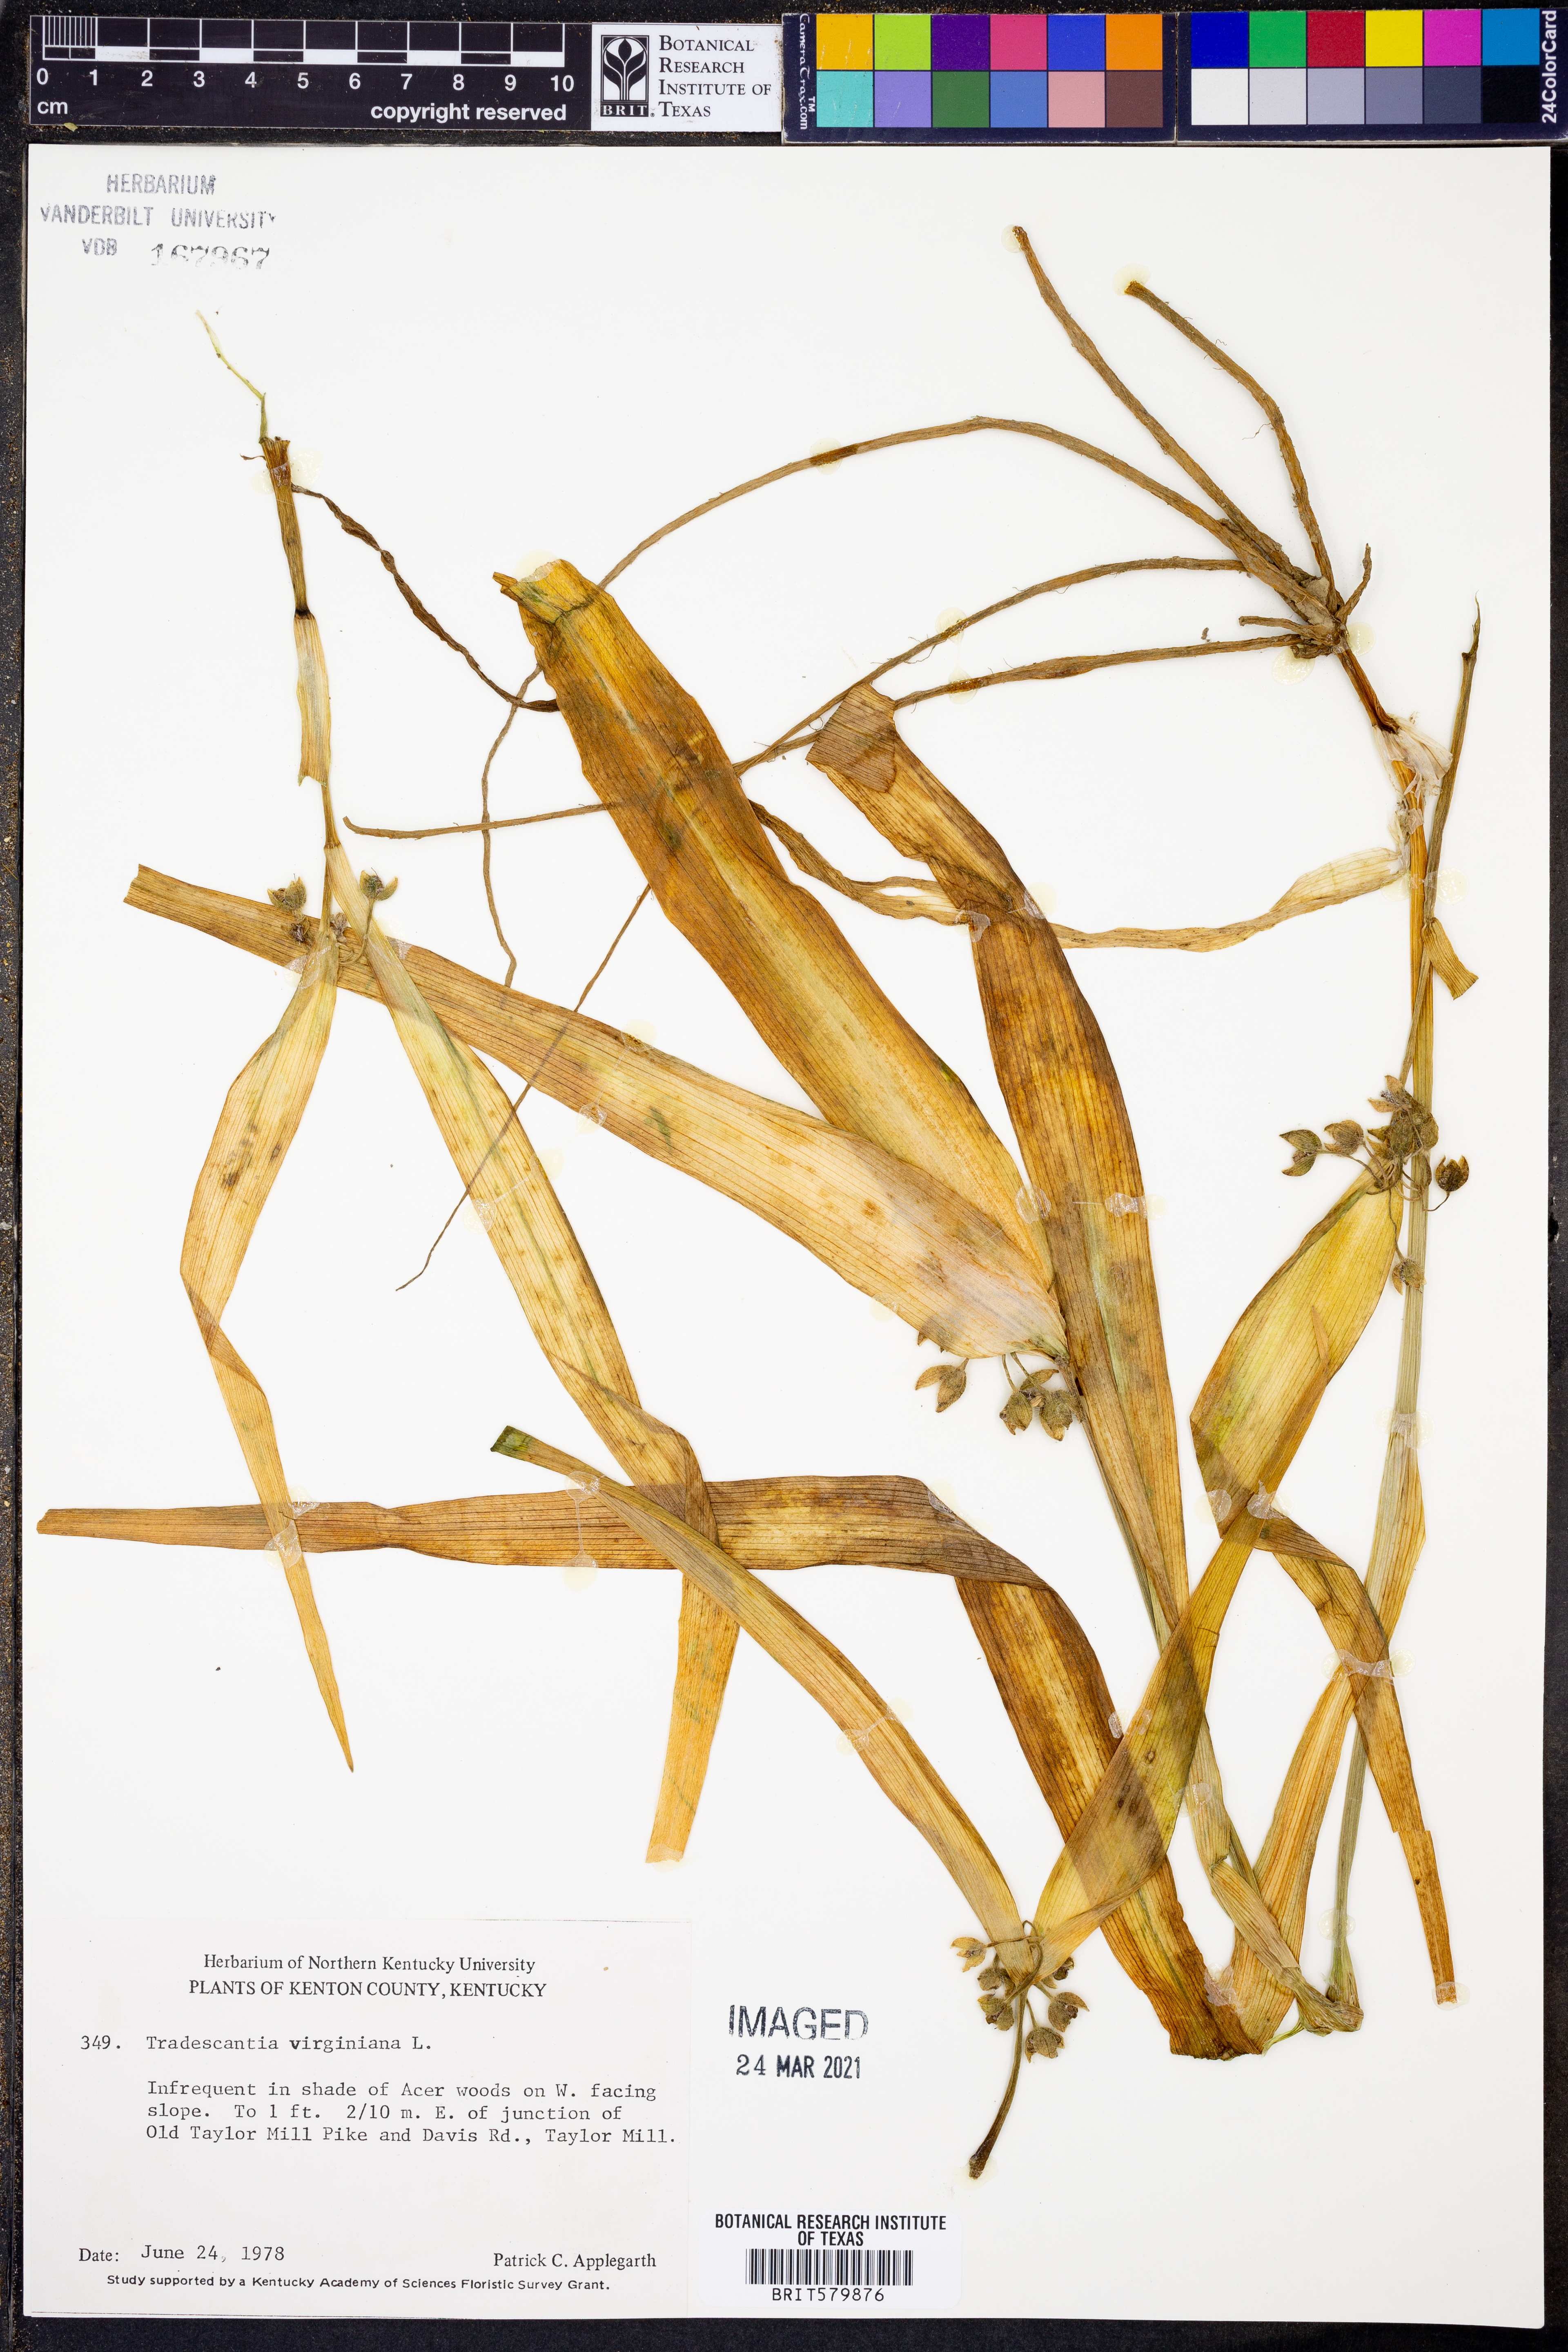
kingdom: Plantae
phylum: Tracheophyta
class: Liliopsida
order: Commelinales
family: Commelinaceae
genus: Tradescantia
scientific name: Tradescantia virginiana
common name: Spiderwort
